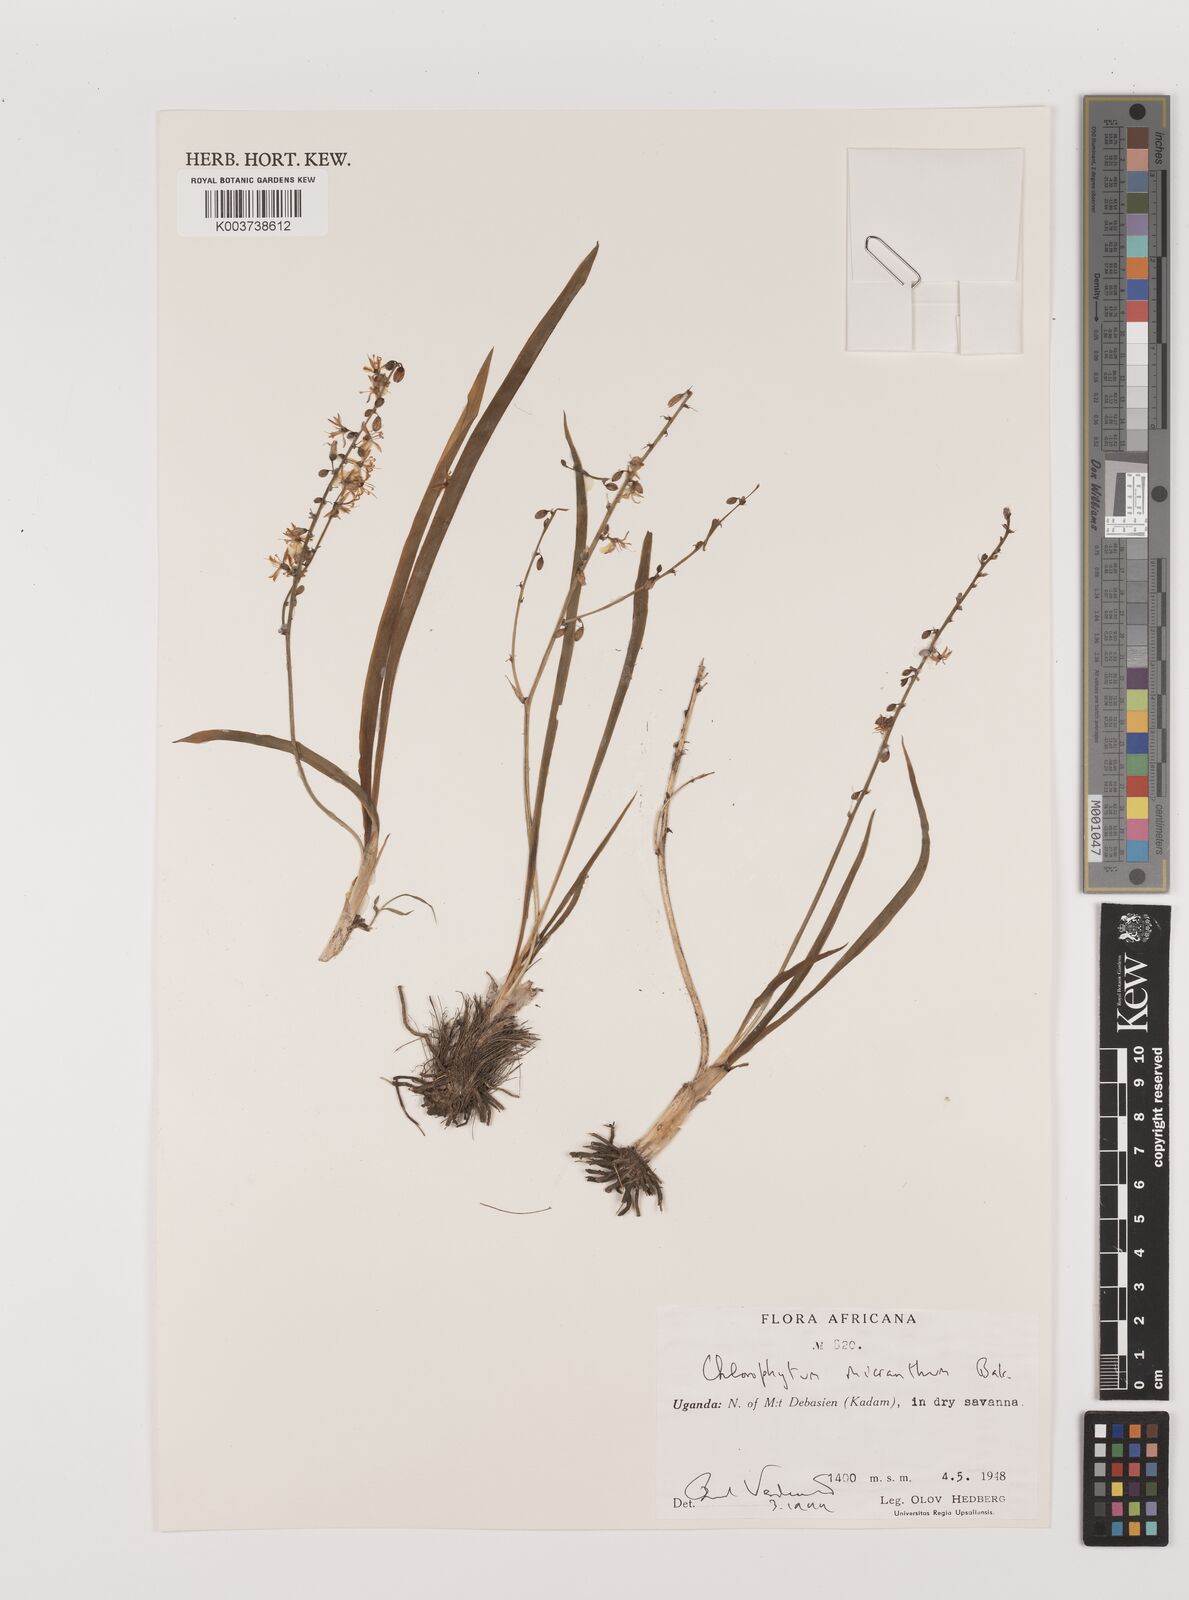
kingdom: Plantae
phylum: Tracheophyta
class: Liliopsida
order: Asparagales
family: Asparagaceae
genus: Chlorophytum
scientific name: Chlorophytum gallabatense
